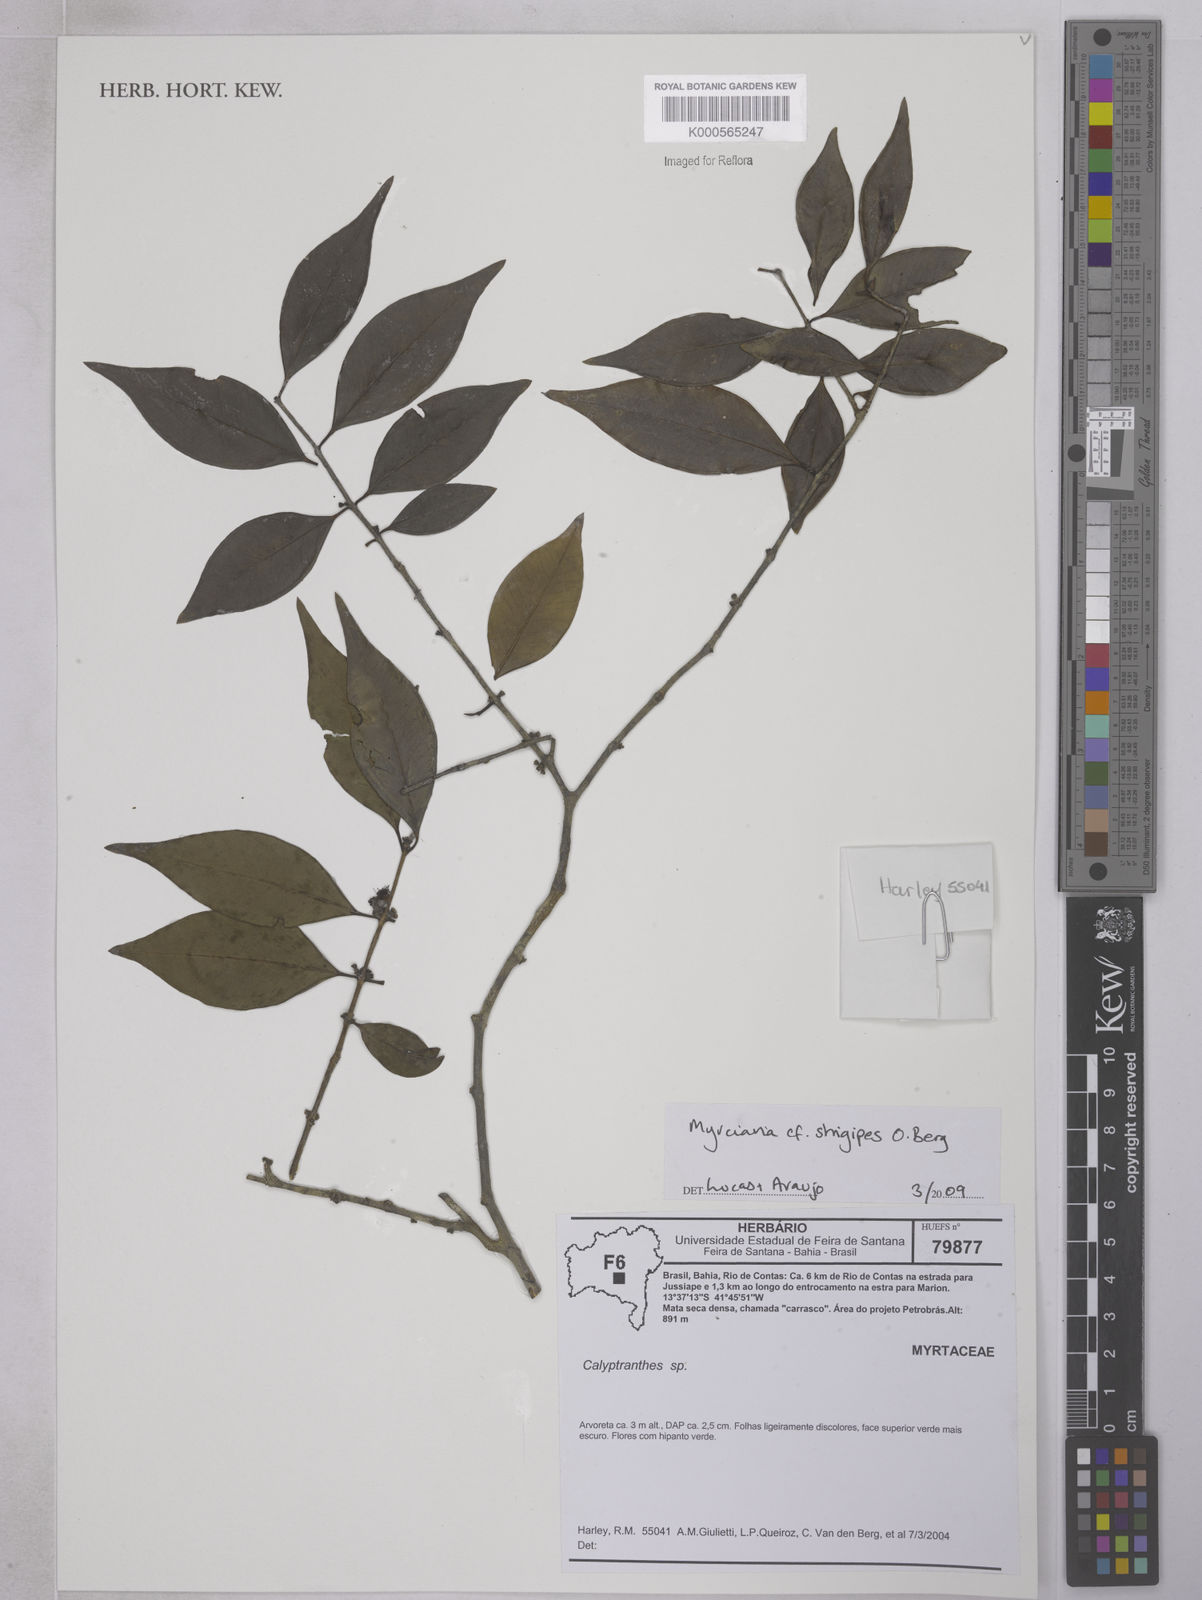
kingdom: Plantae
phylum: Tracheophyta
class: Magnoliopsida
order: Myrtales
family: Myrtaceae
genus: Myrciaria
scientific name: Myrciaria strigipes
